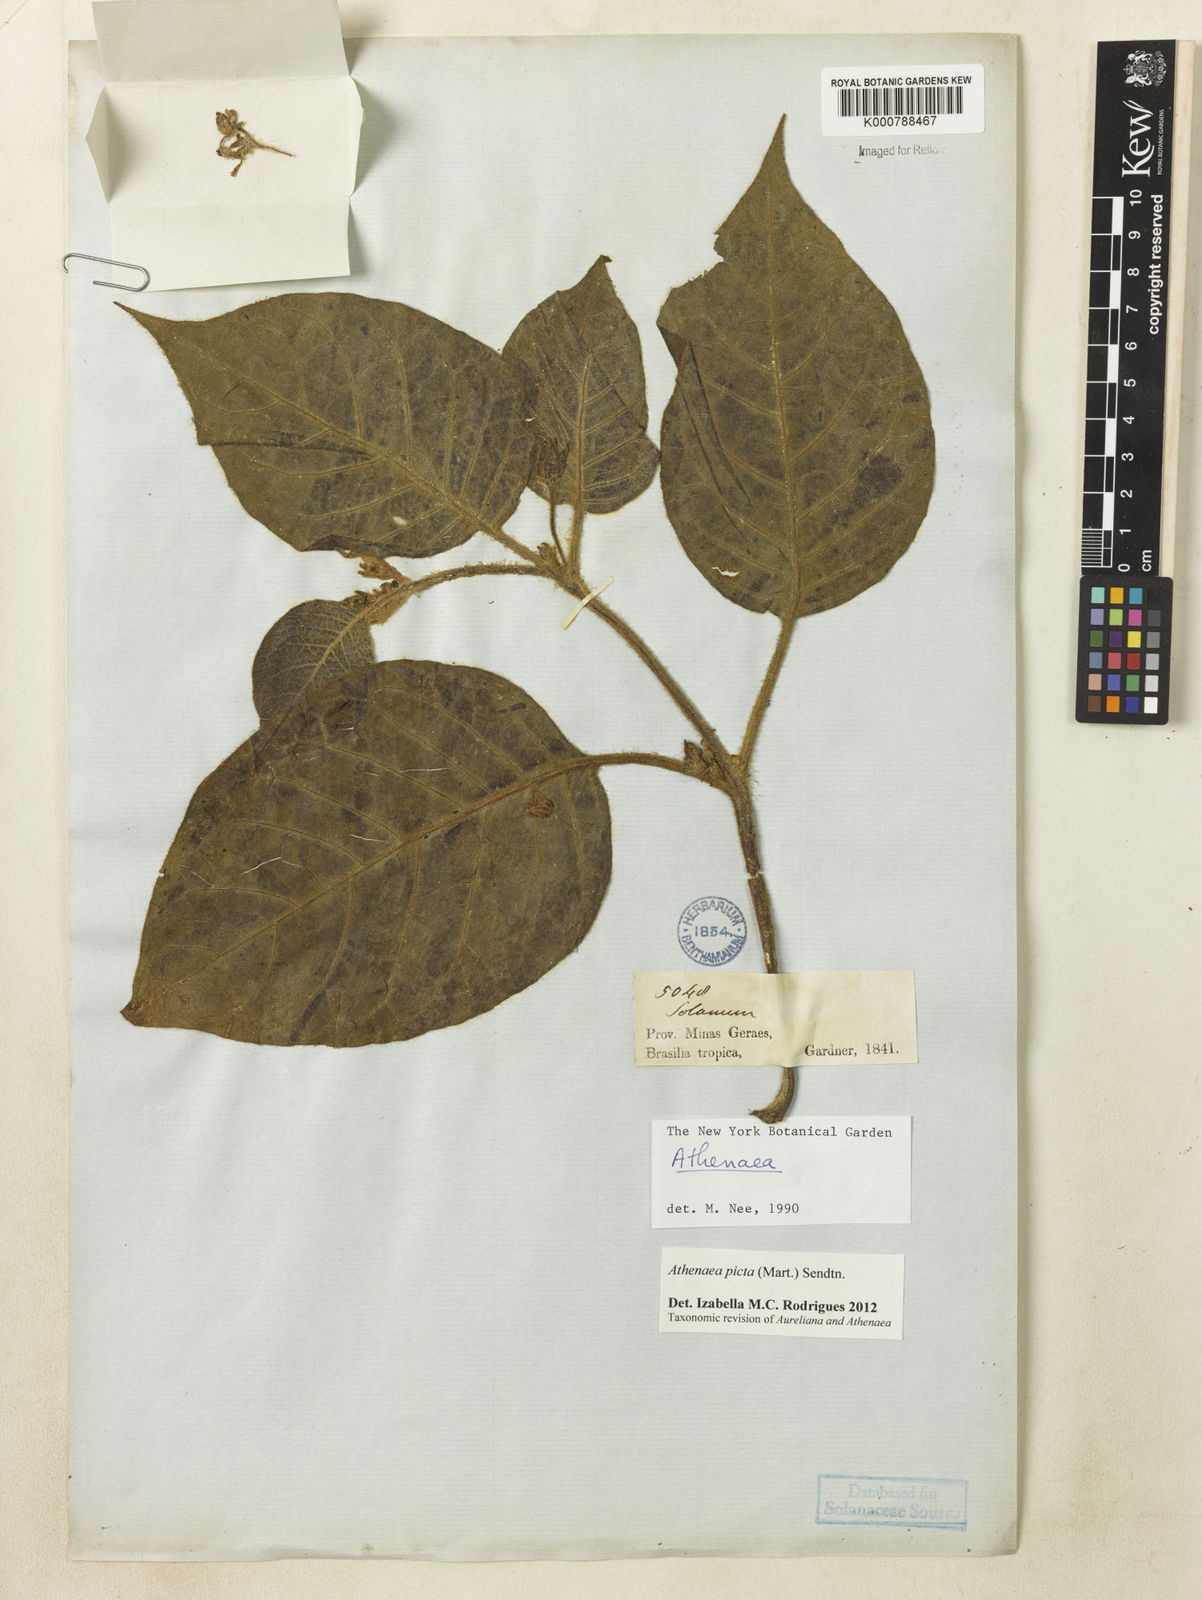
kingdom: Plantae
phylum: Tracheophyta
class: Magnoliopsida
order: Solanales
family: Solanaceae
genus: Athenaea
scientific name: Athenaea picta
